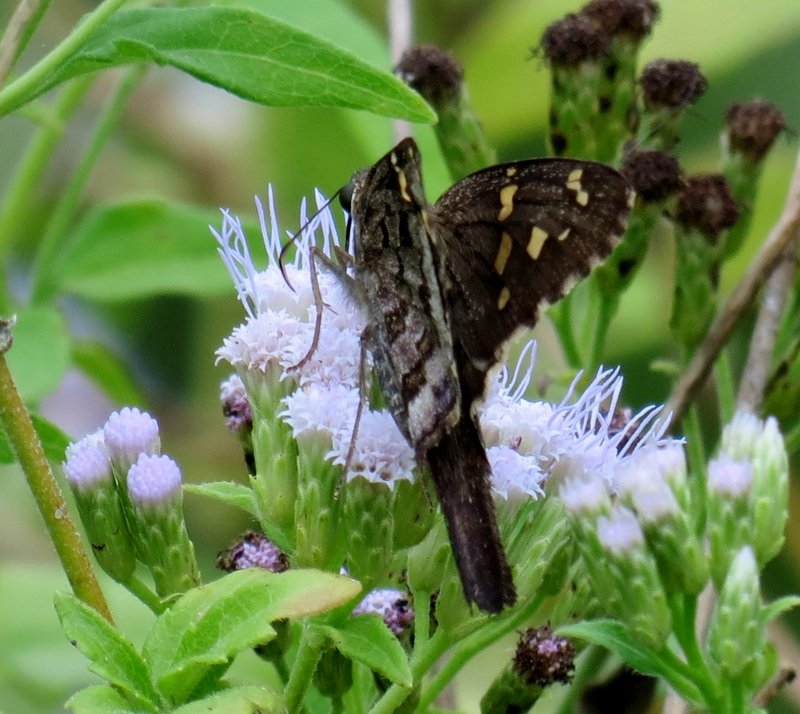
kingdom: Animalia
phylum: Arthropoda
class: Insecta
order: Lepidoptera
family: Hesperiidae
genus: Urbanus
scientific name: Urbanus dorantes
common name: Dorantes Longtail
